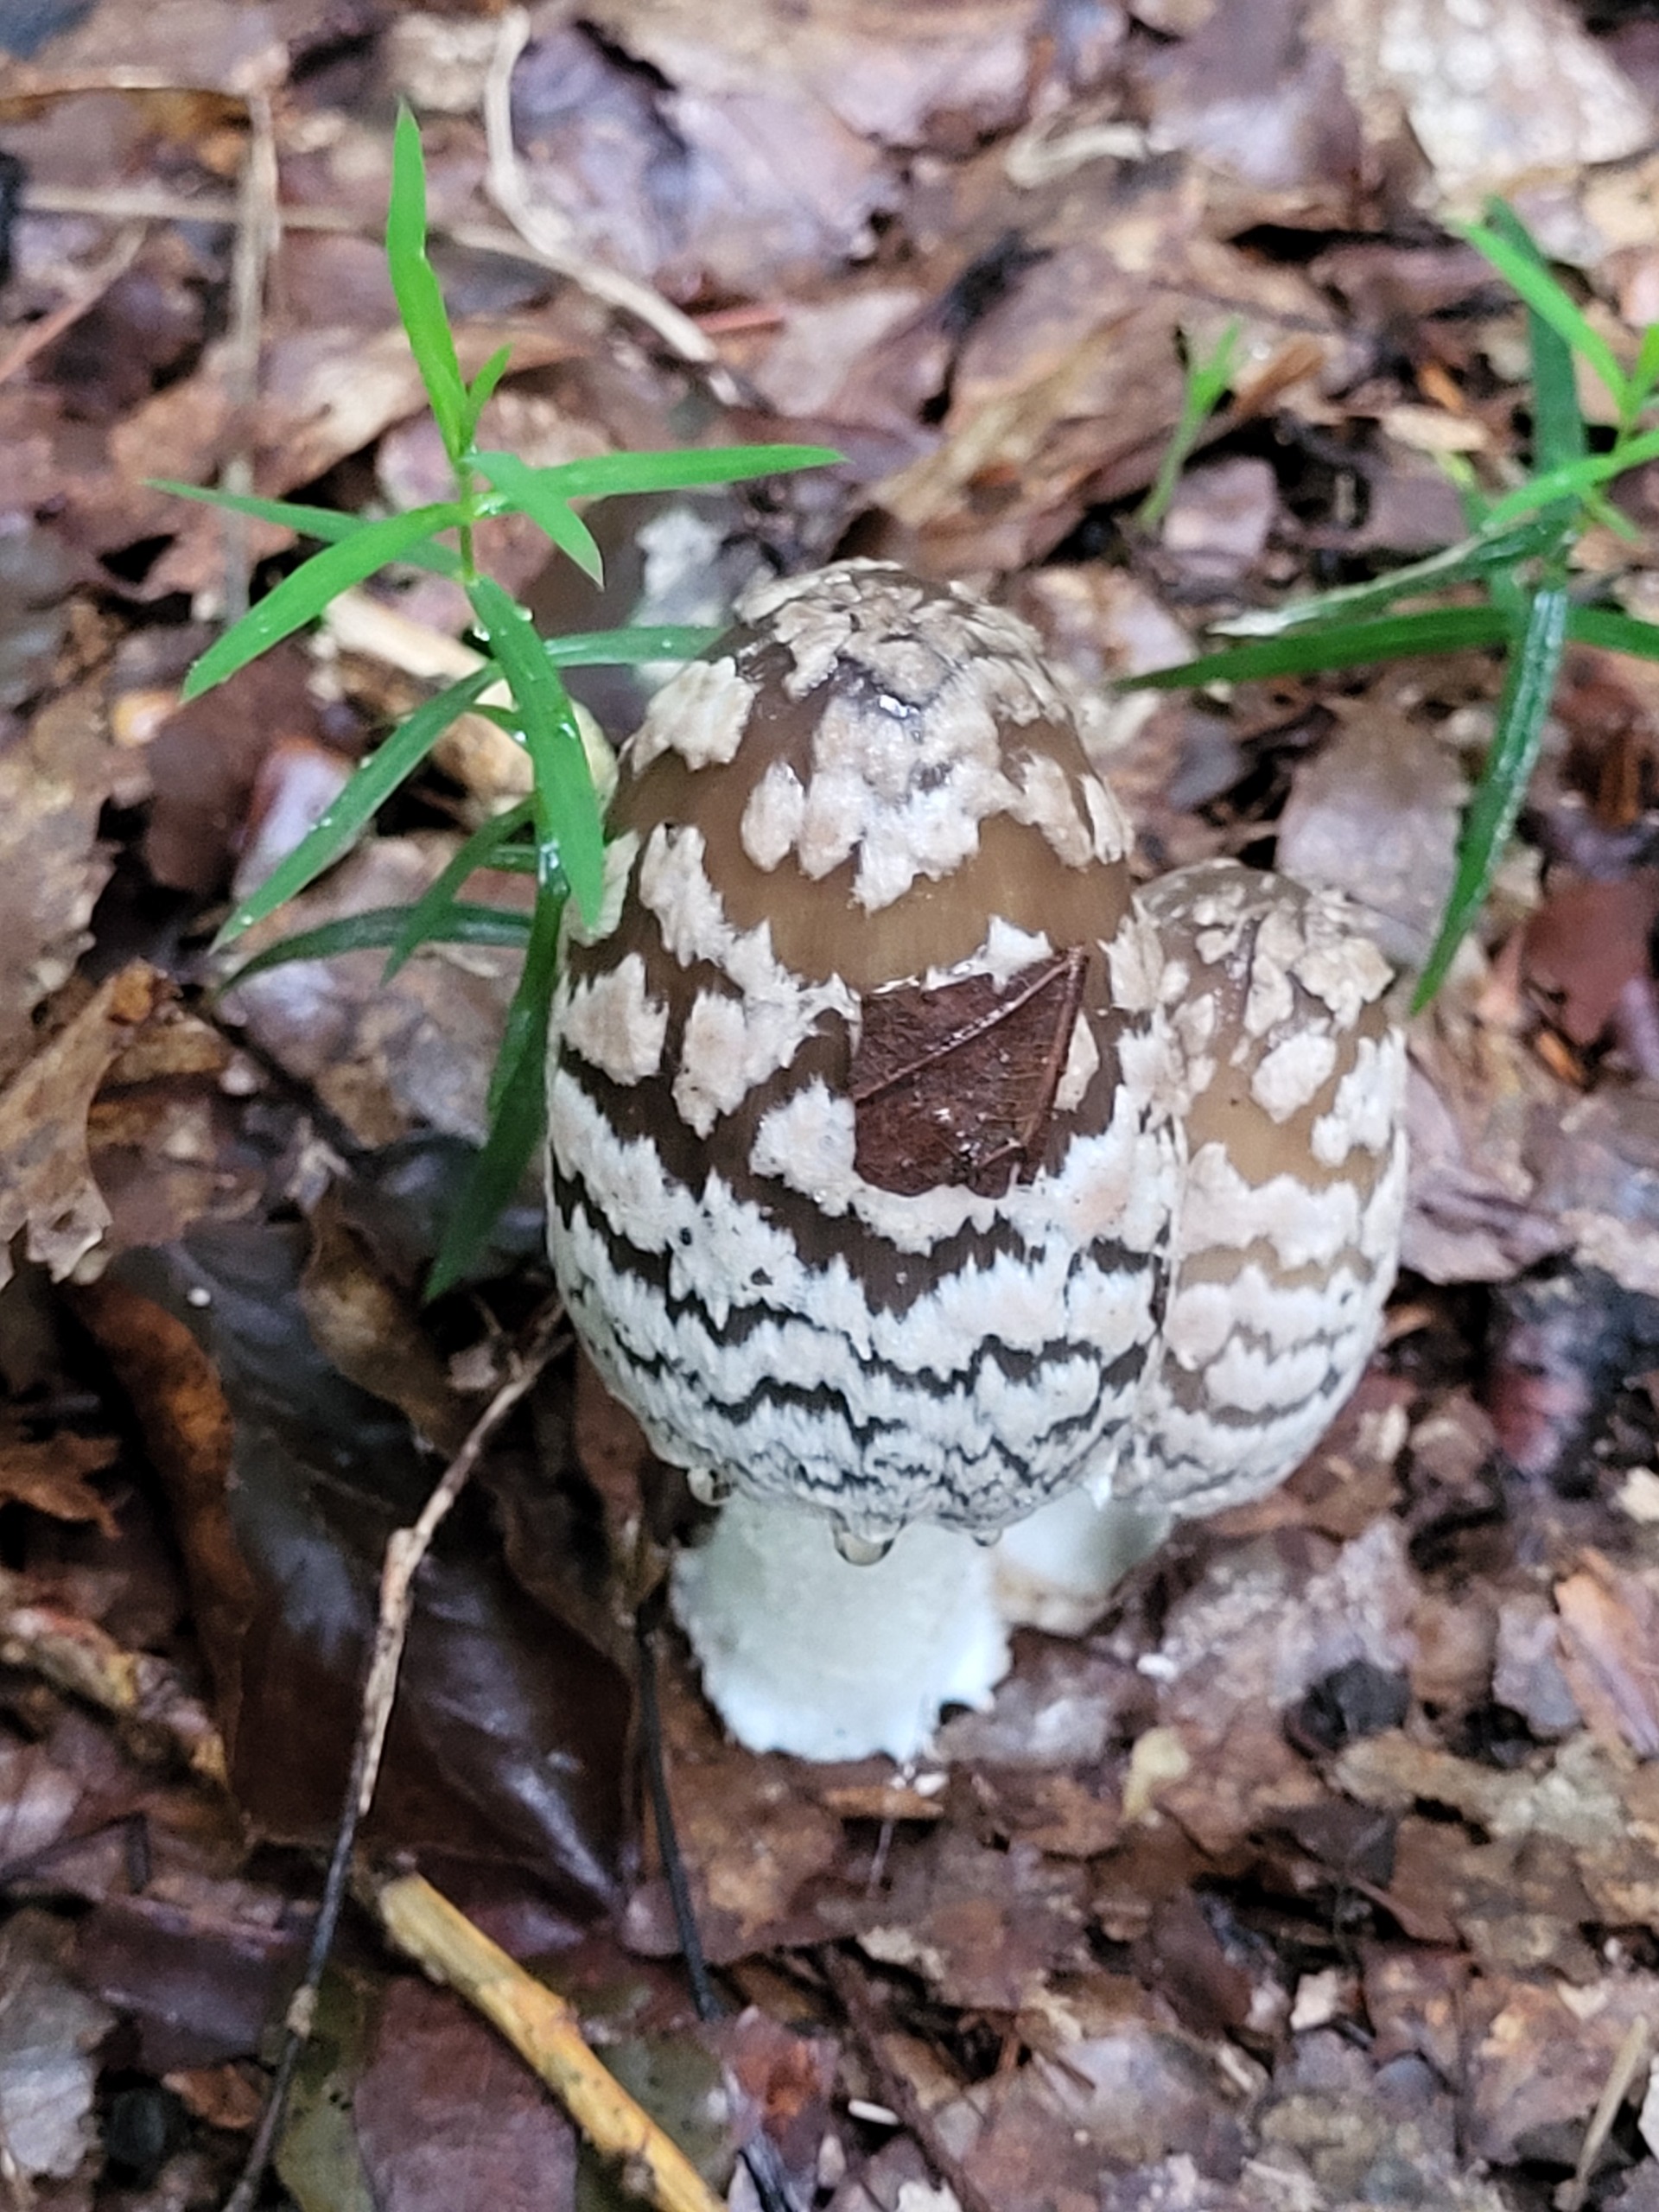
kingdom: Fungi
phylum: Basidiomycota
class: Agaricomycetes
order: Agaricales
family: Psathyrellaceae
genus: Coprinopsis
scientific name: Coprinopsis picacea
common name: Skade-blækhat
